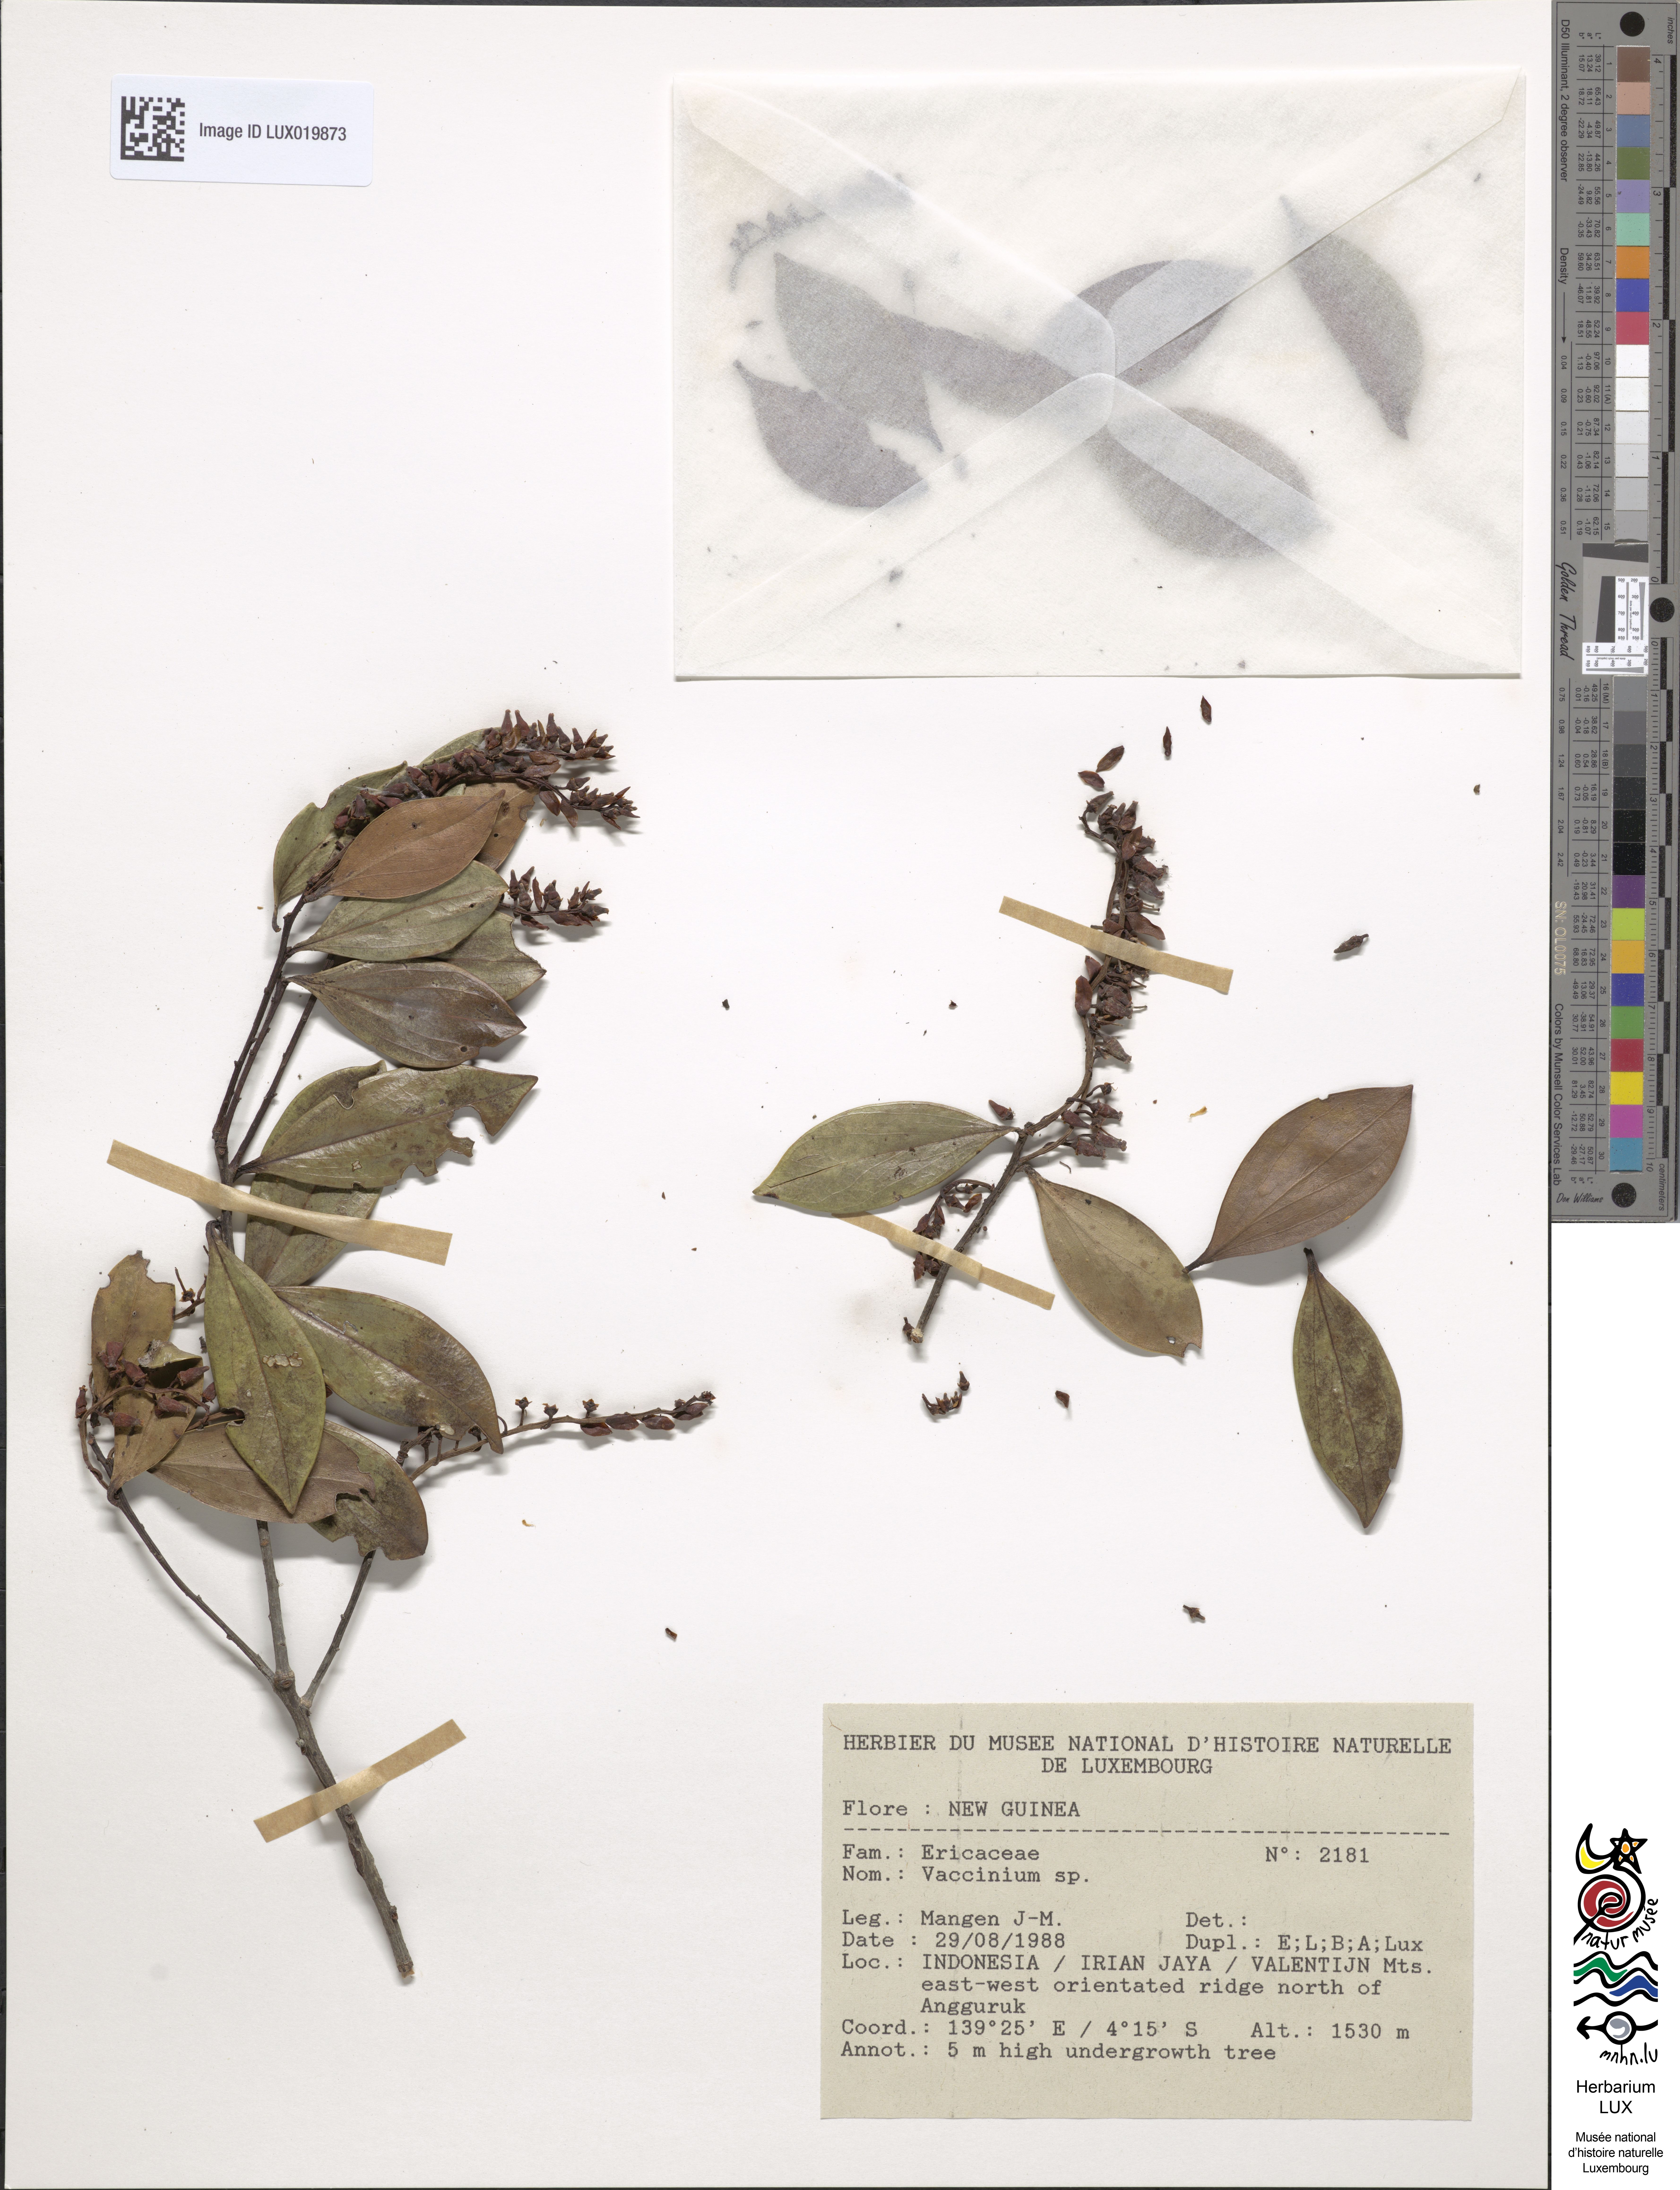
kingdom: Plantae
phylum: Tracheophyta
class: Magnoliopsida
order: Ericales
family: Ericaceae
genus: Vaccinium
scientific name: Vaccinium
